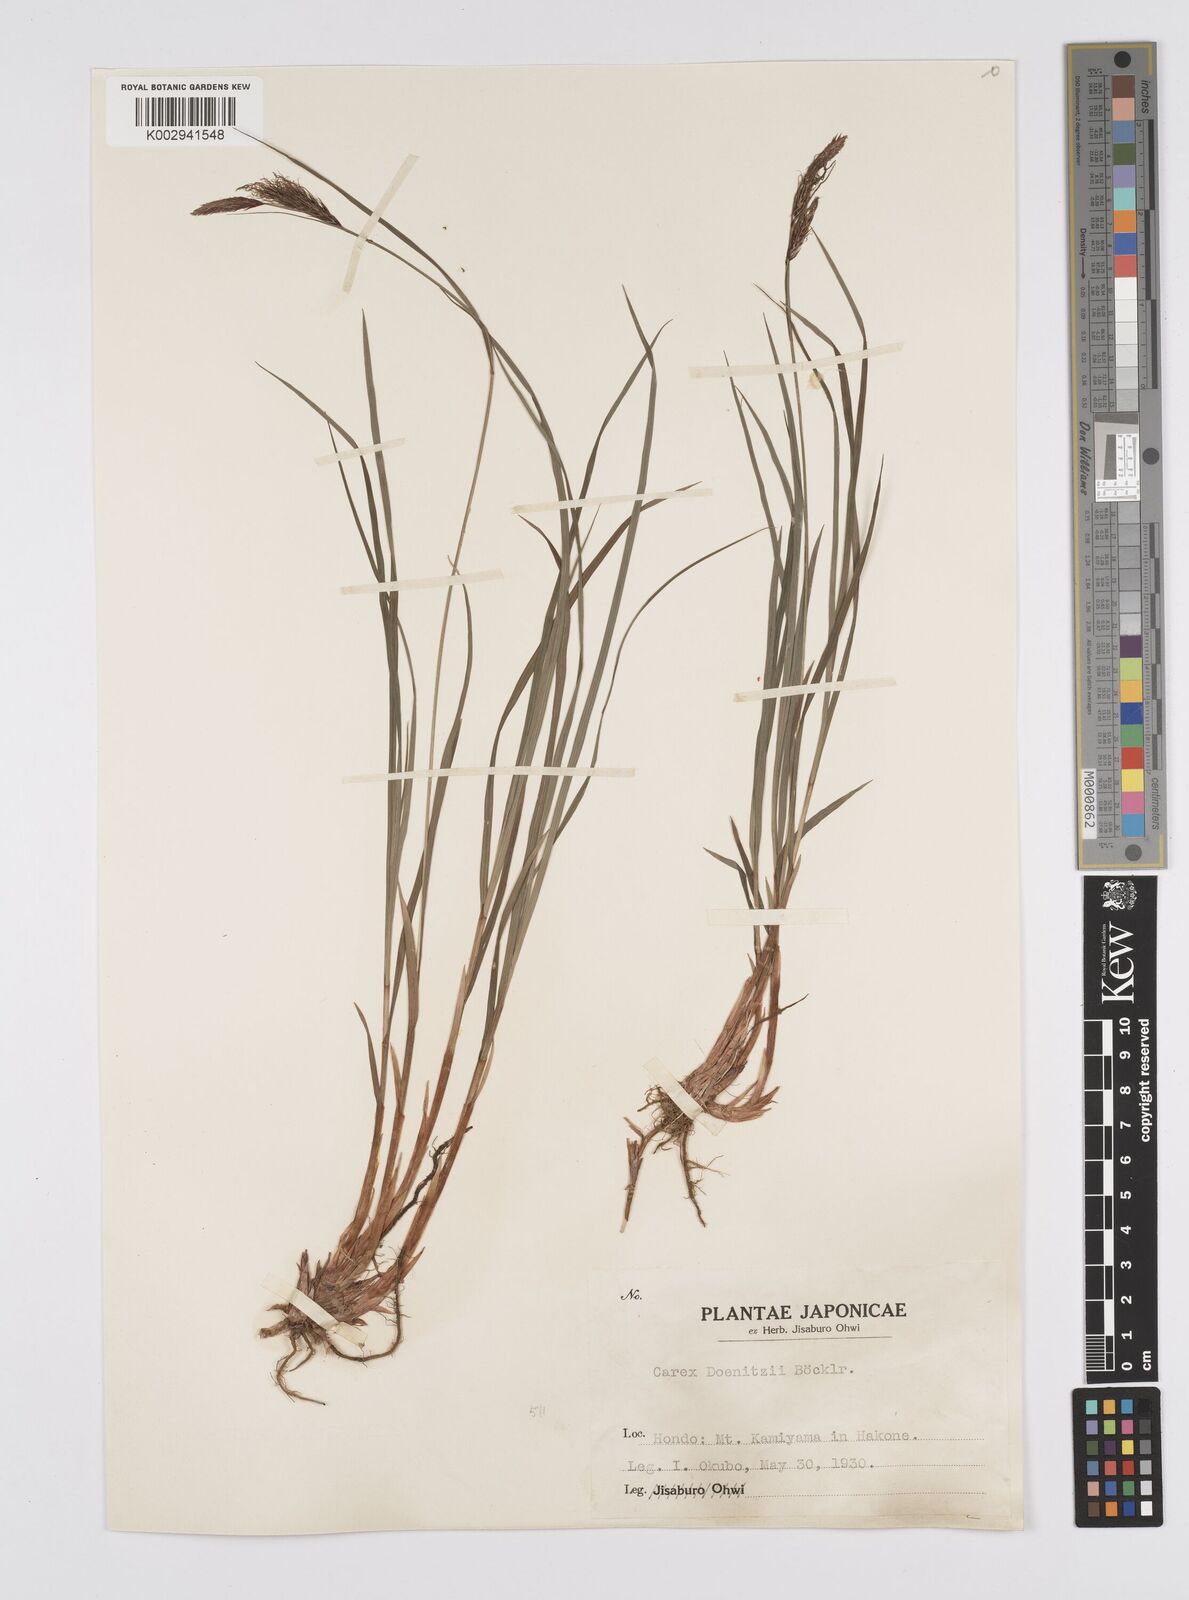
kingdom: Plantae
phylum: Tracheophyta
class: Liliopsida
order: Poales
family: Cyperaceae
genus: Carex
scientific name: Carex doenitzii
